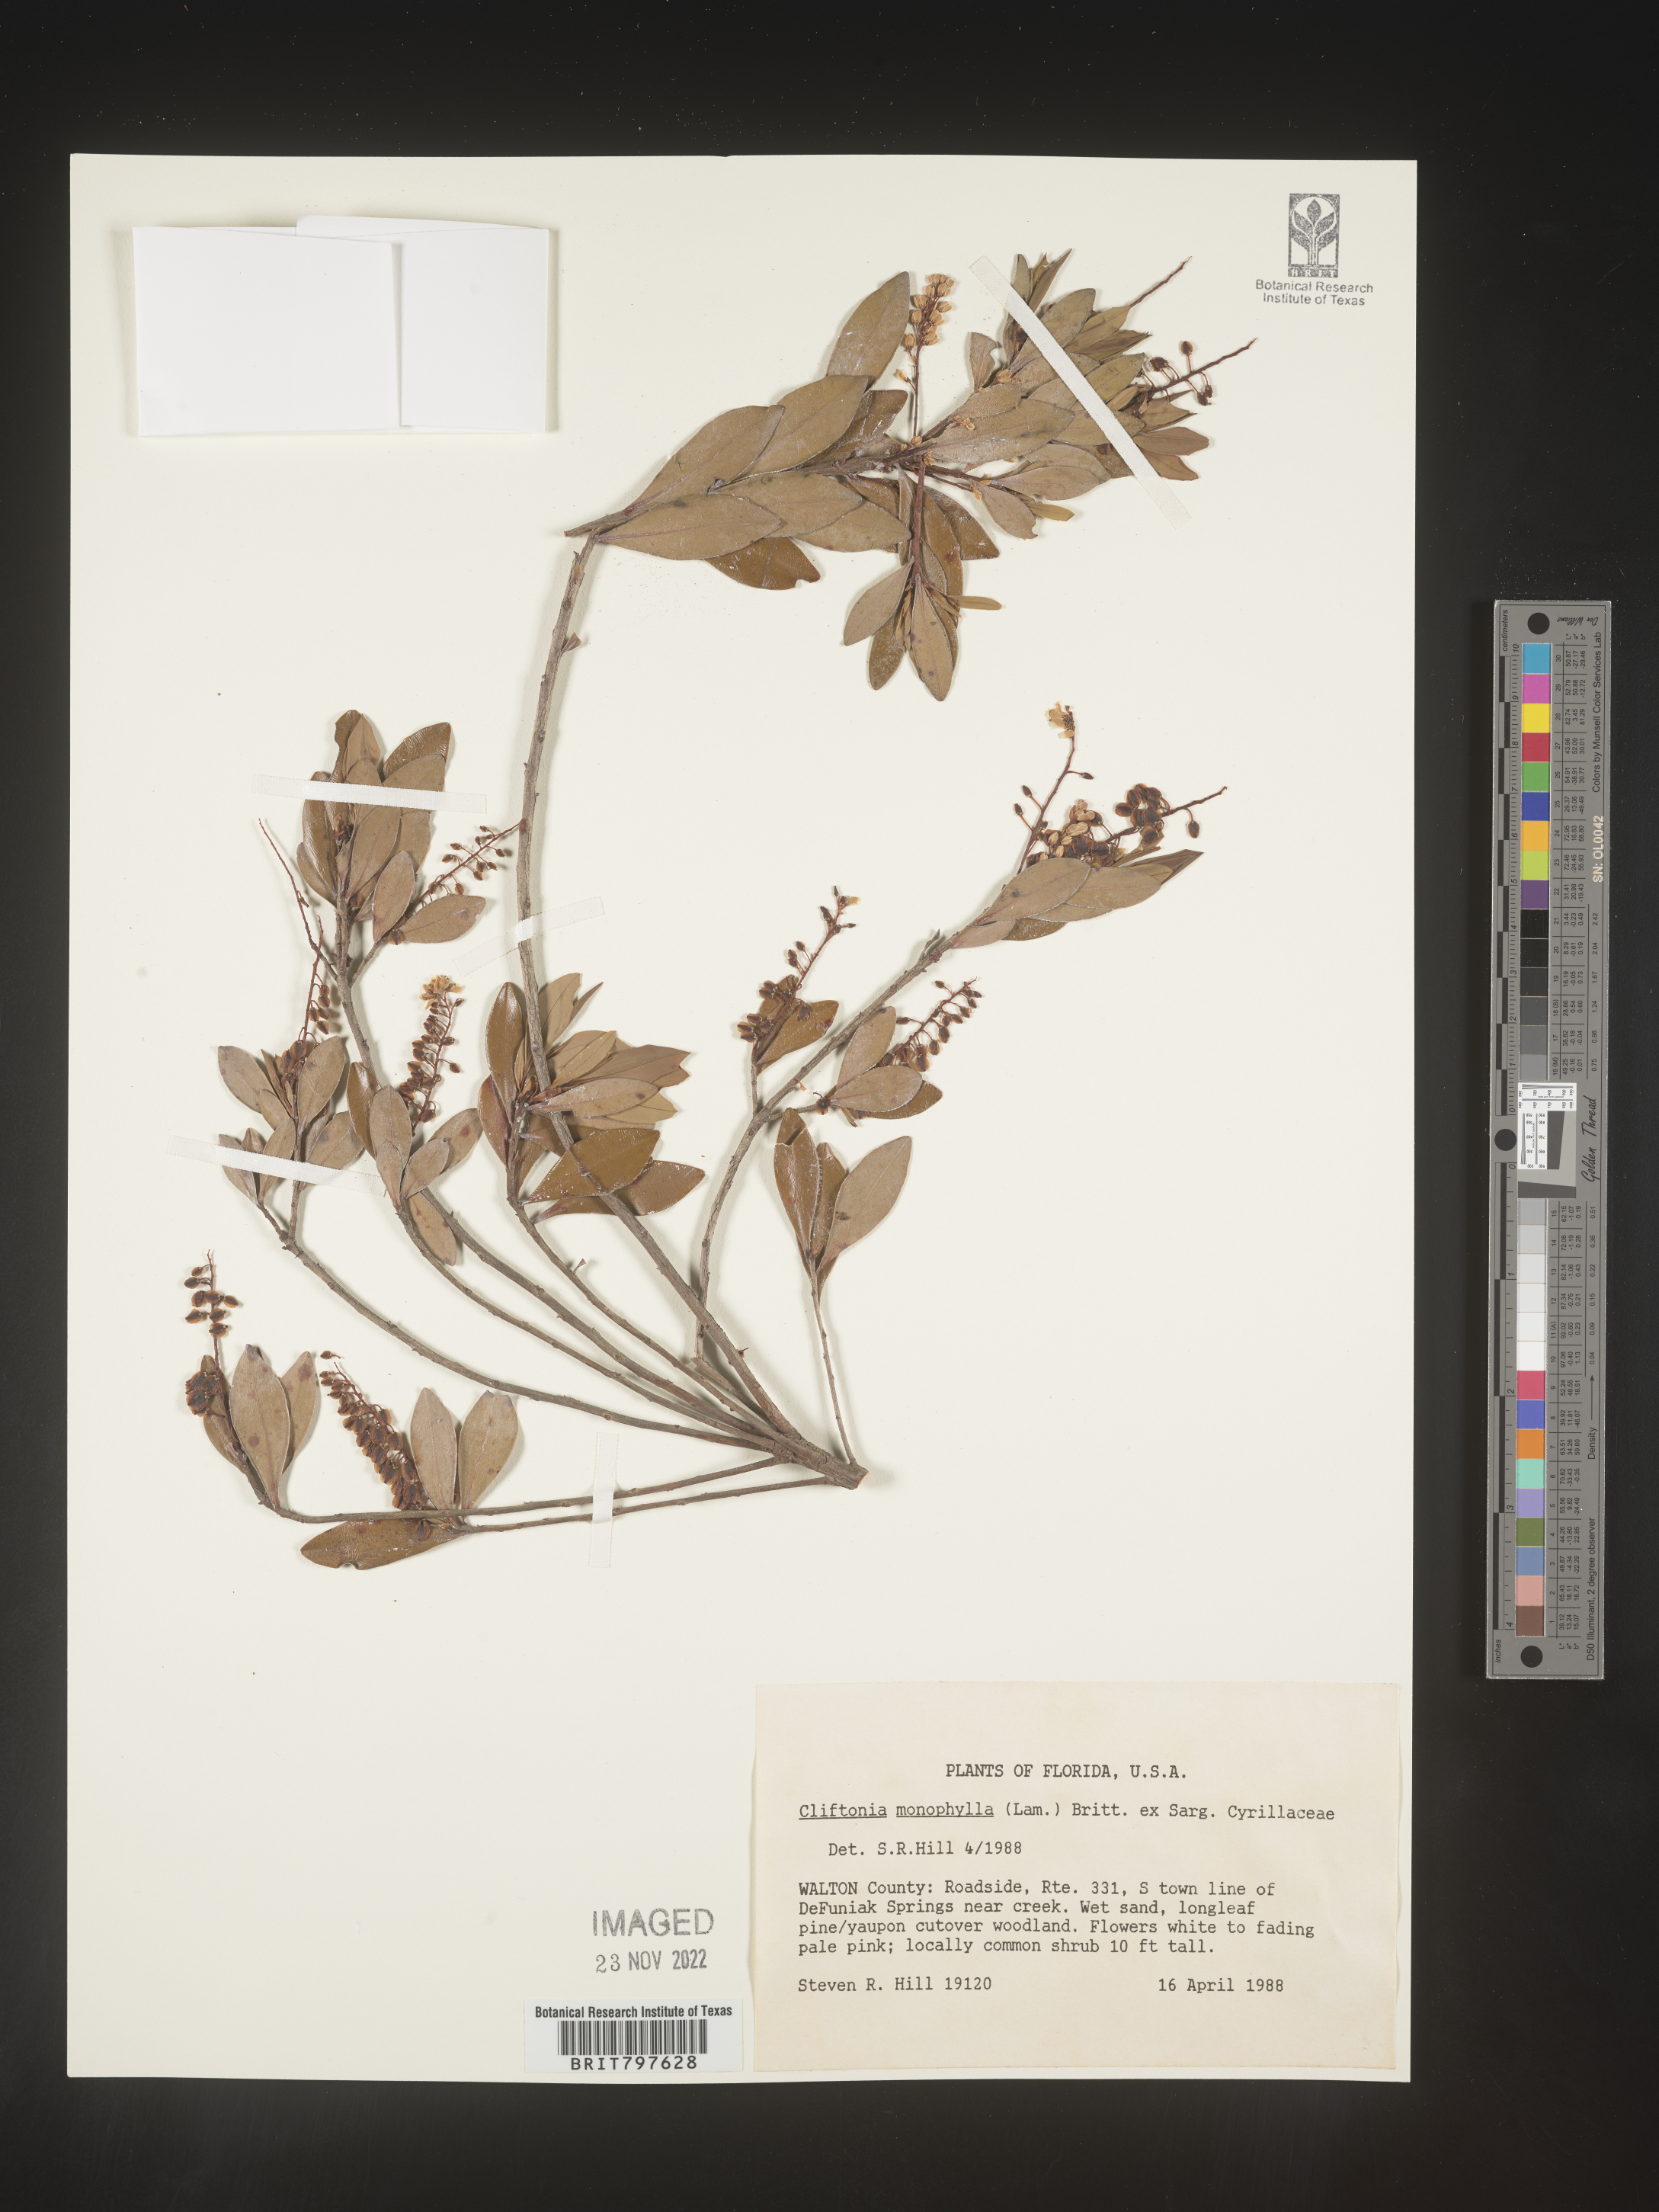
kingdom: Plantae
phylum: Tracheophyta
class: Magnoliopsida
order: Ericales
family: Cyrillaceae
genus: Cliftonia
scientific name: Cliftonia monophylla
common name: Titi
